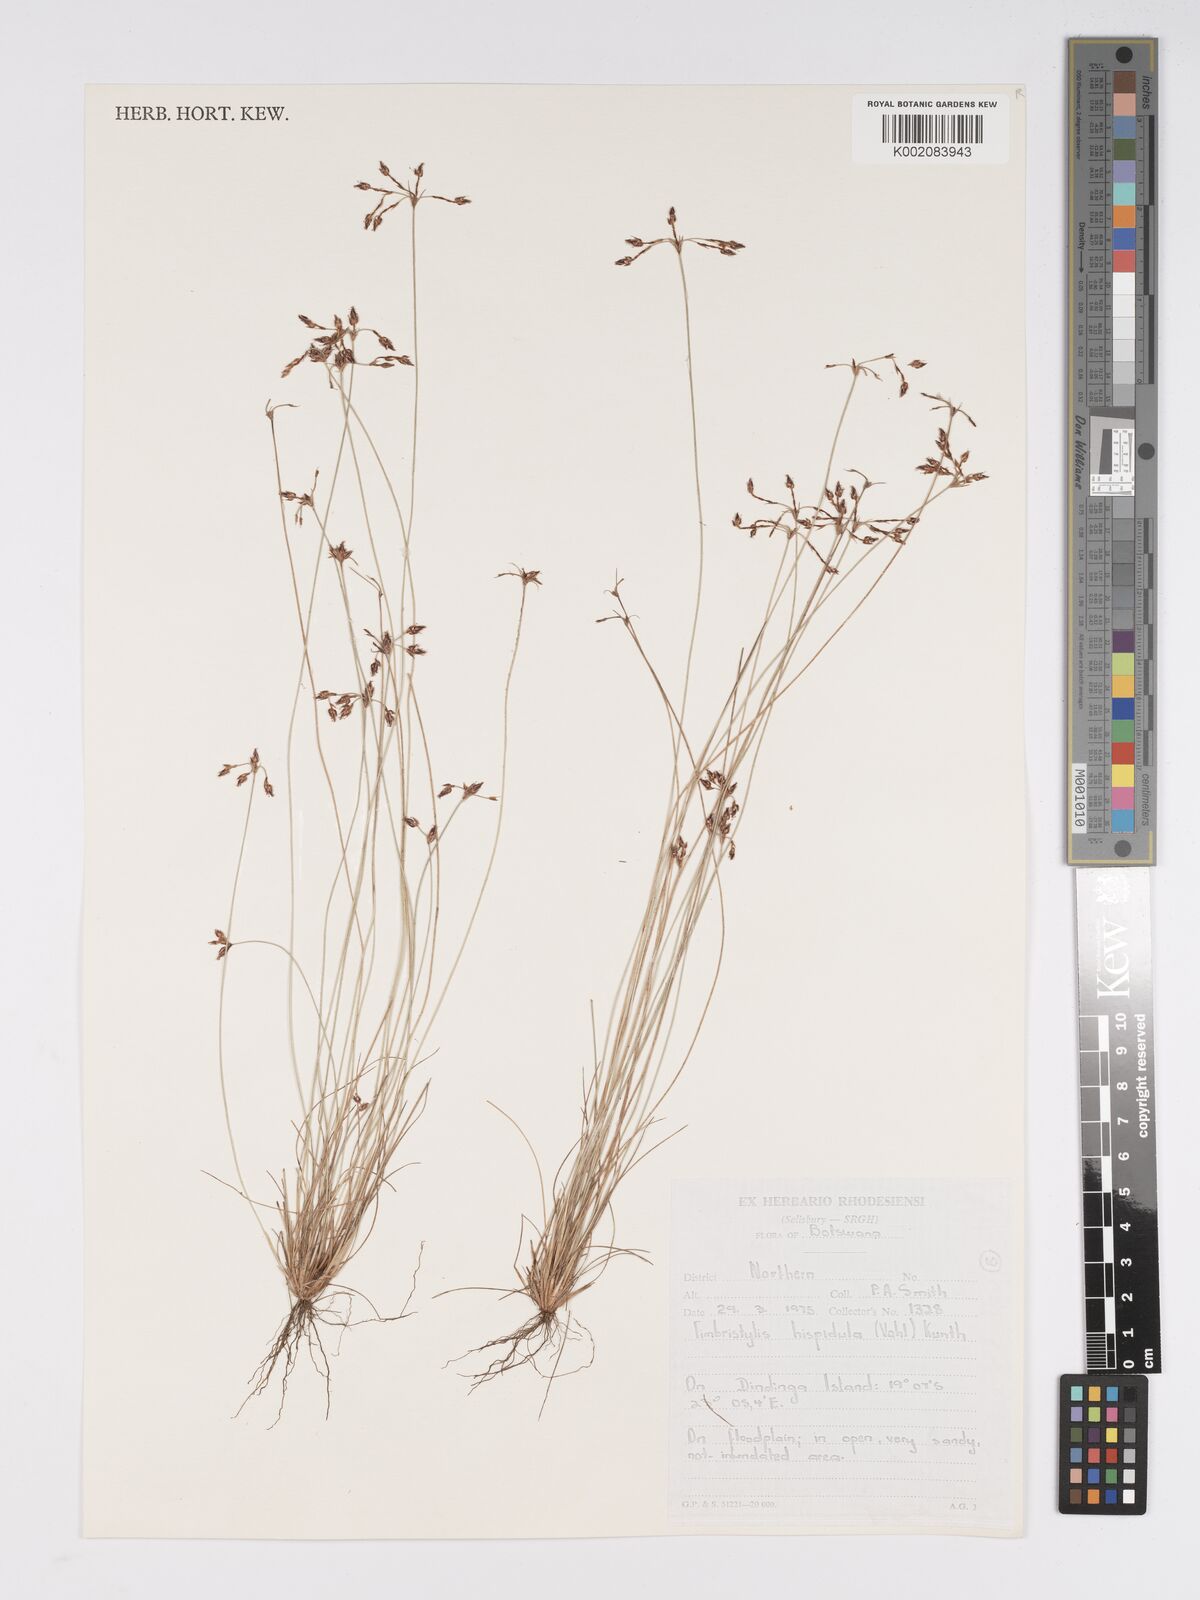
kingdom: Plantae
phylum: Tracheophyta
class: Liliopsida
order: Poales
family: Cyperaceae
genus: Bulbostylis
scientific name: Bulbostylis hispidula
